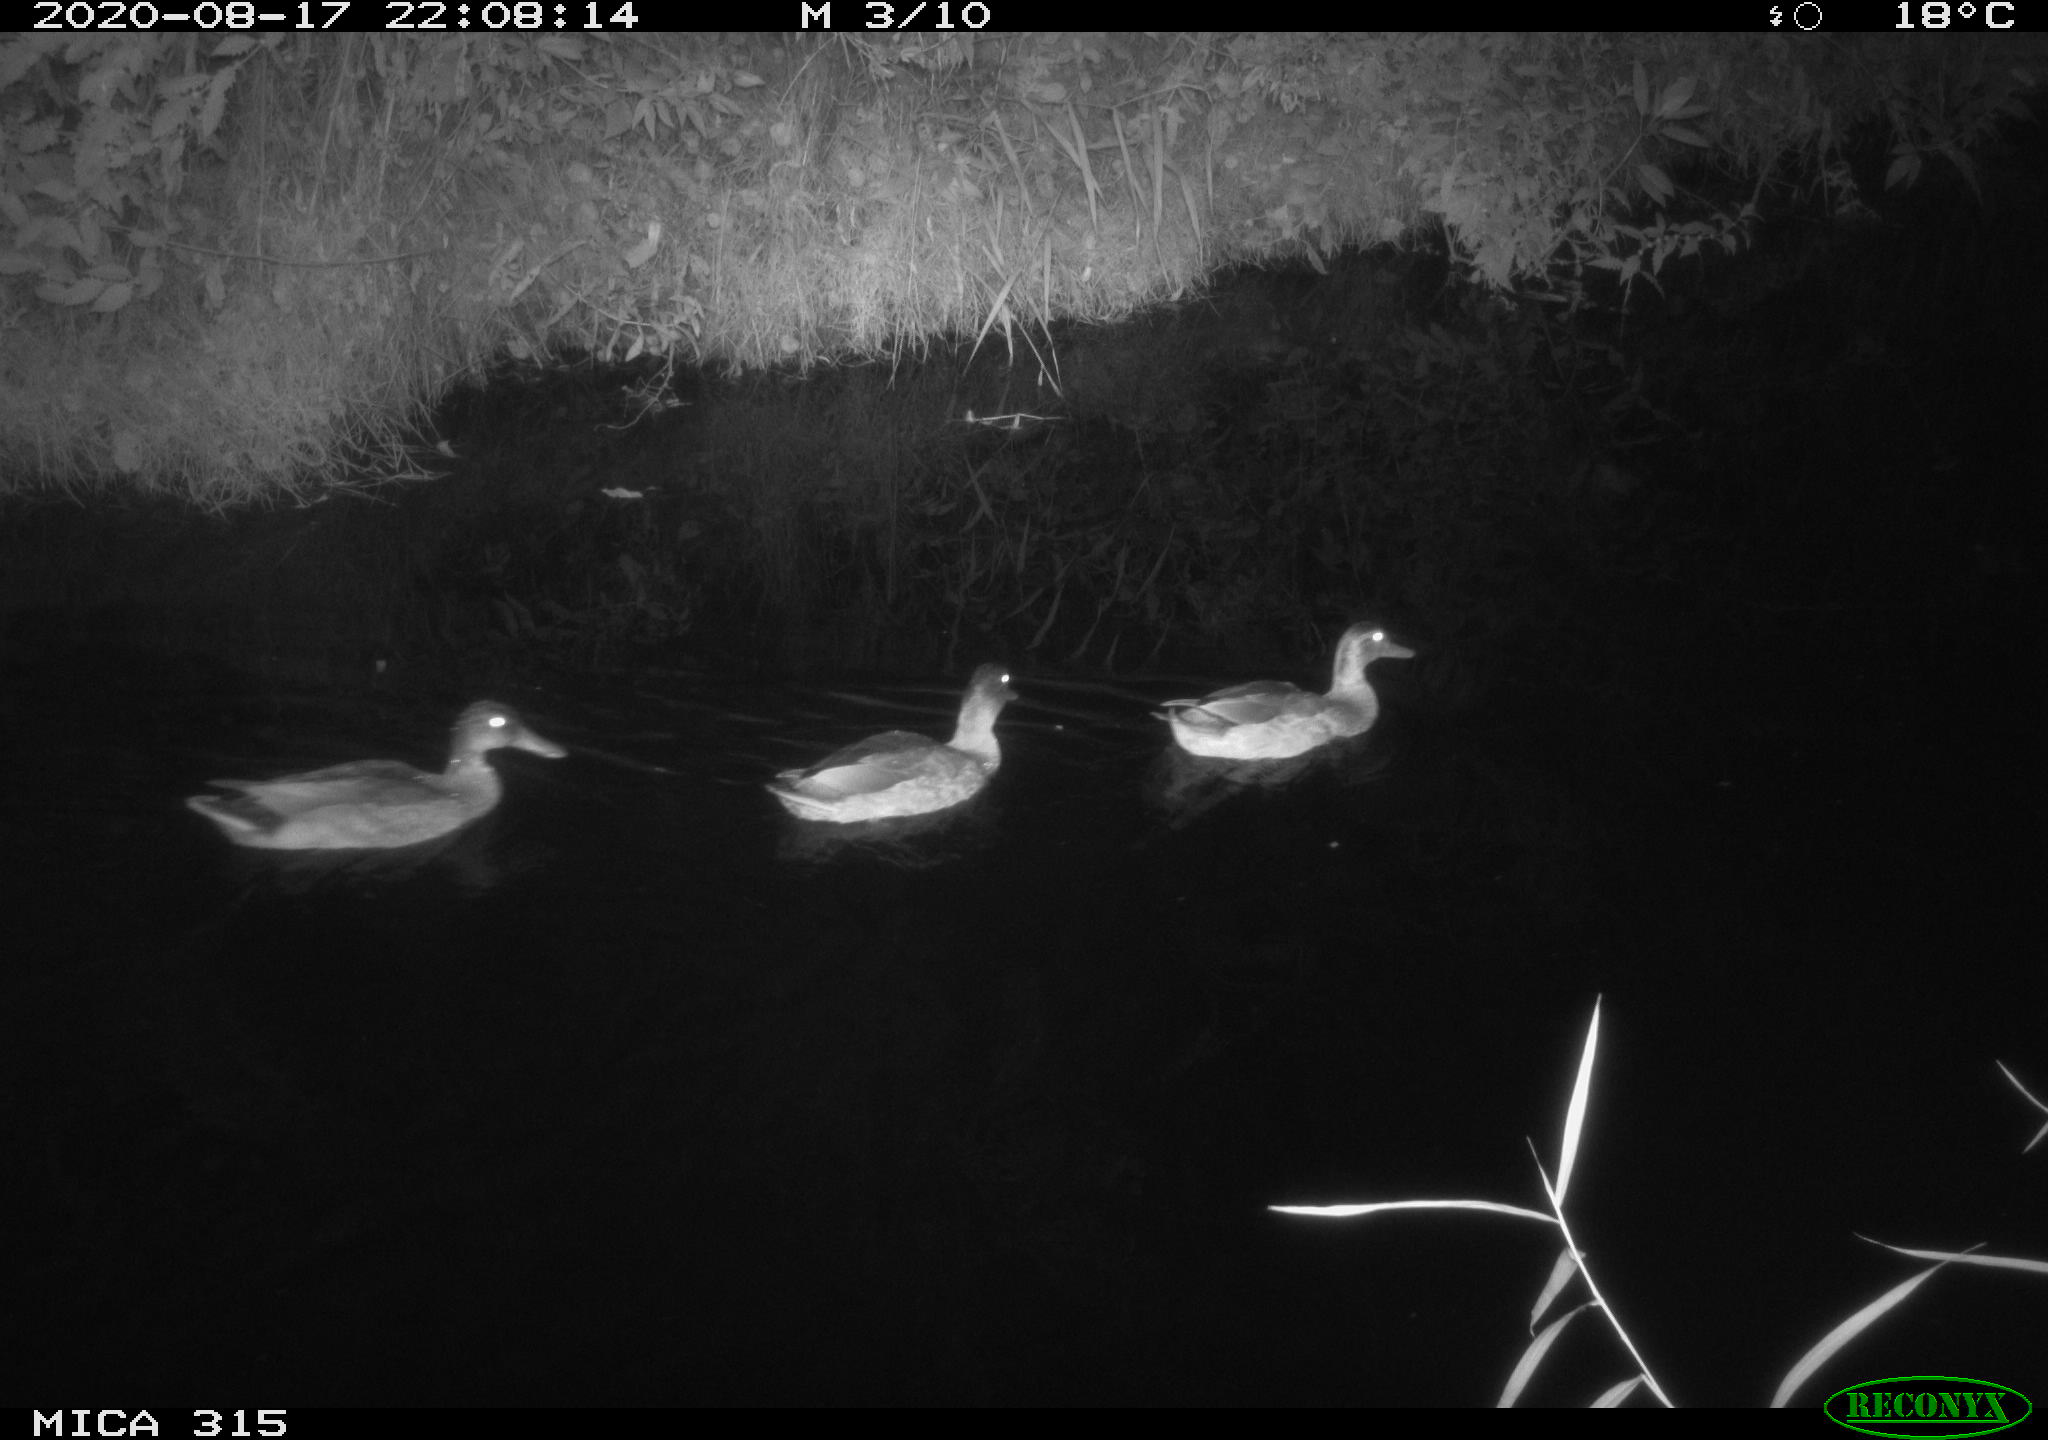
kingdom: Animalia
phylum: Chordata
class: Aves
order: Anseriformes
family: Anatidae
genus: Anas
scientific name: Anas platyrhynchos
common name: Mallard
